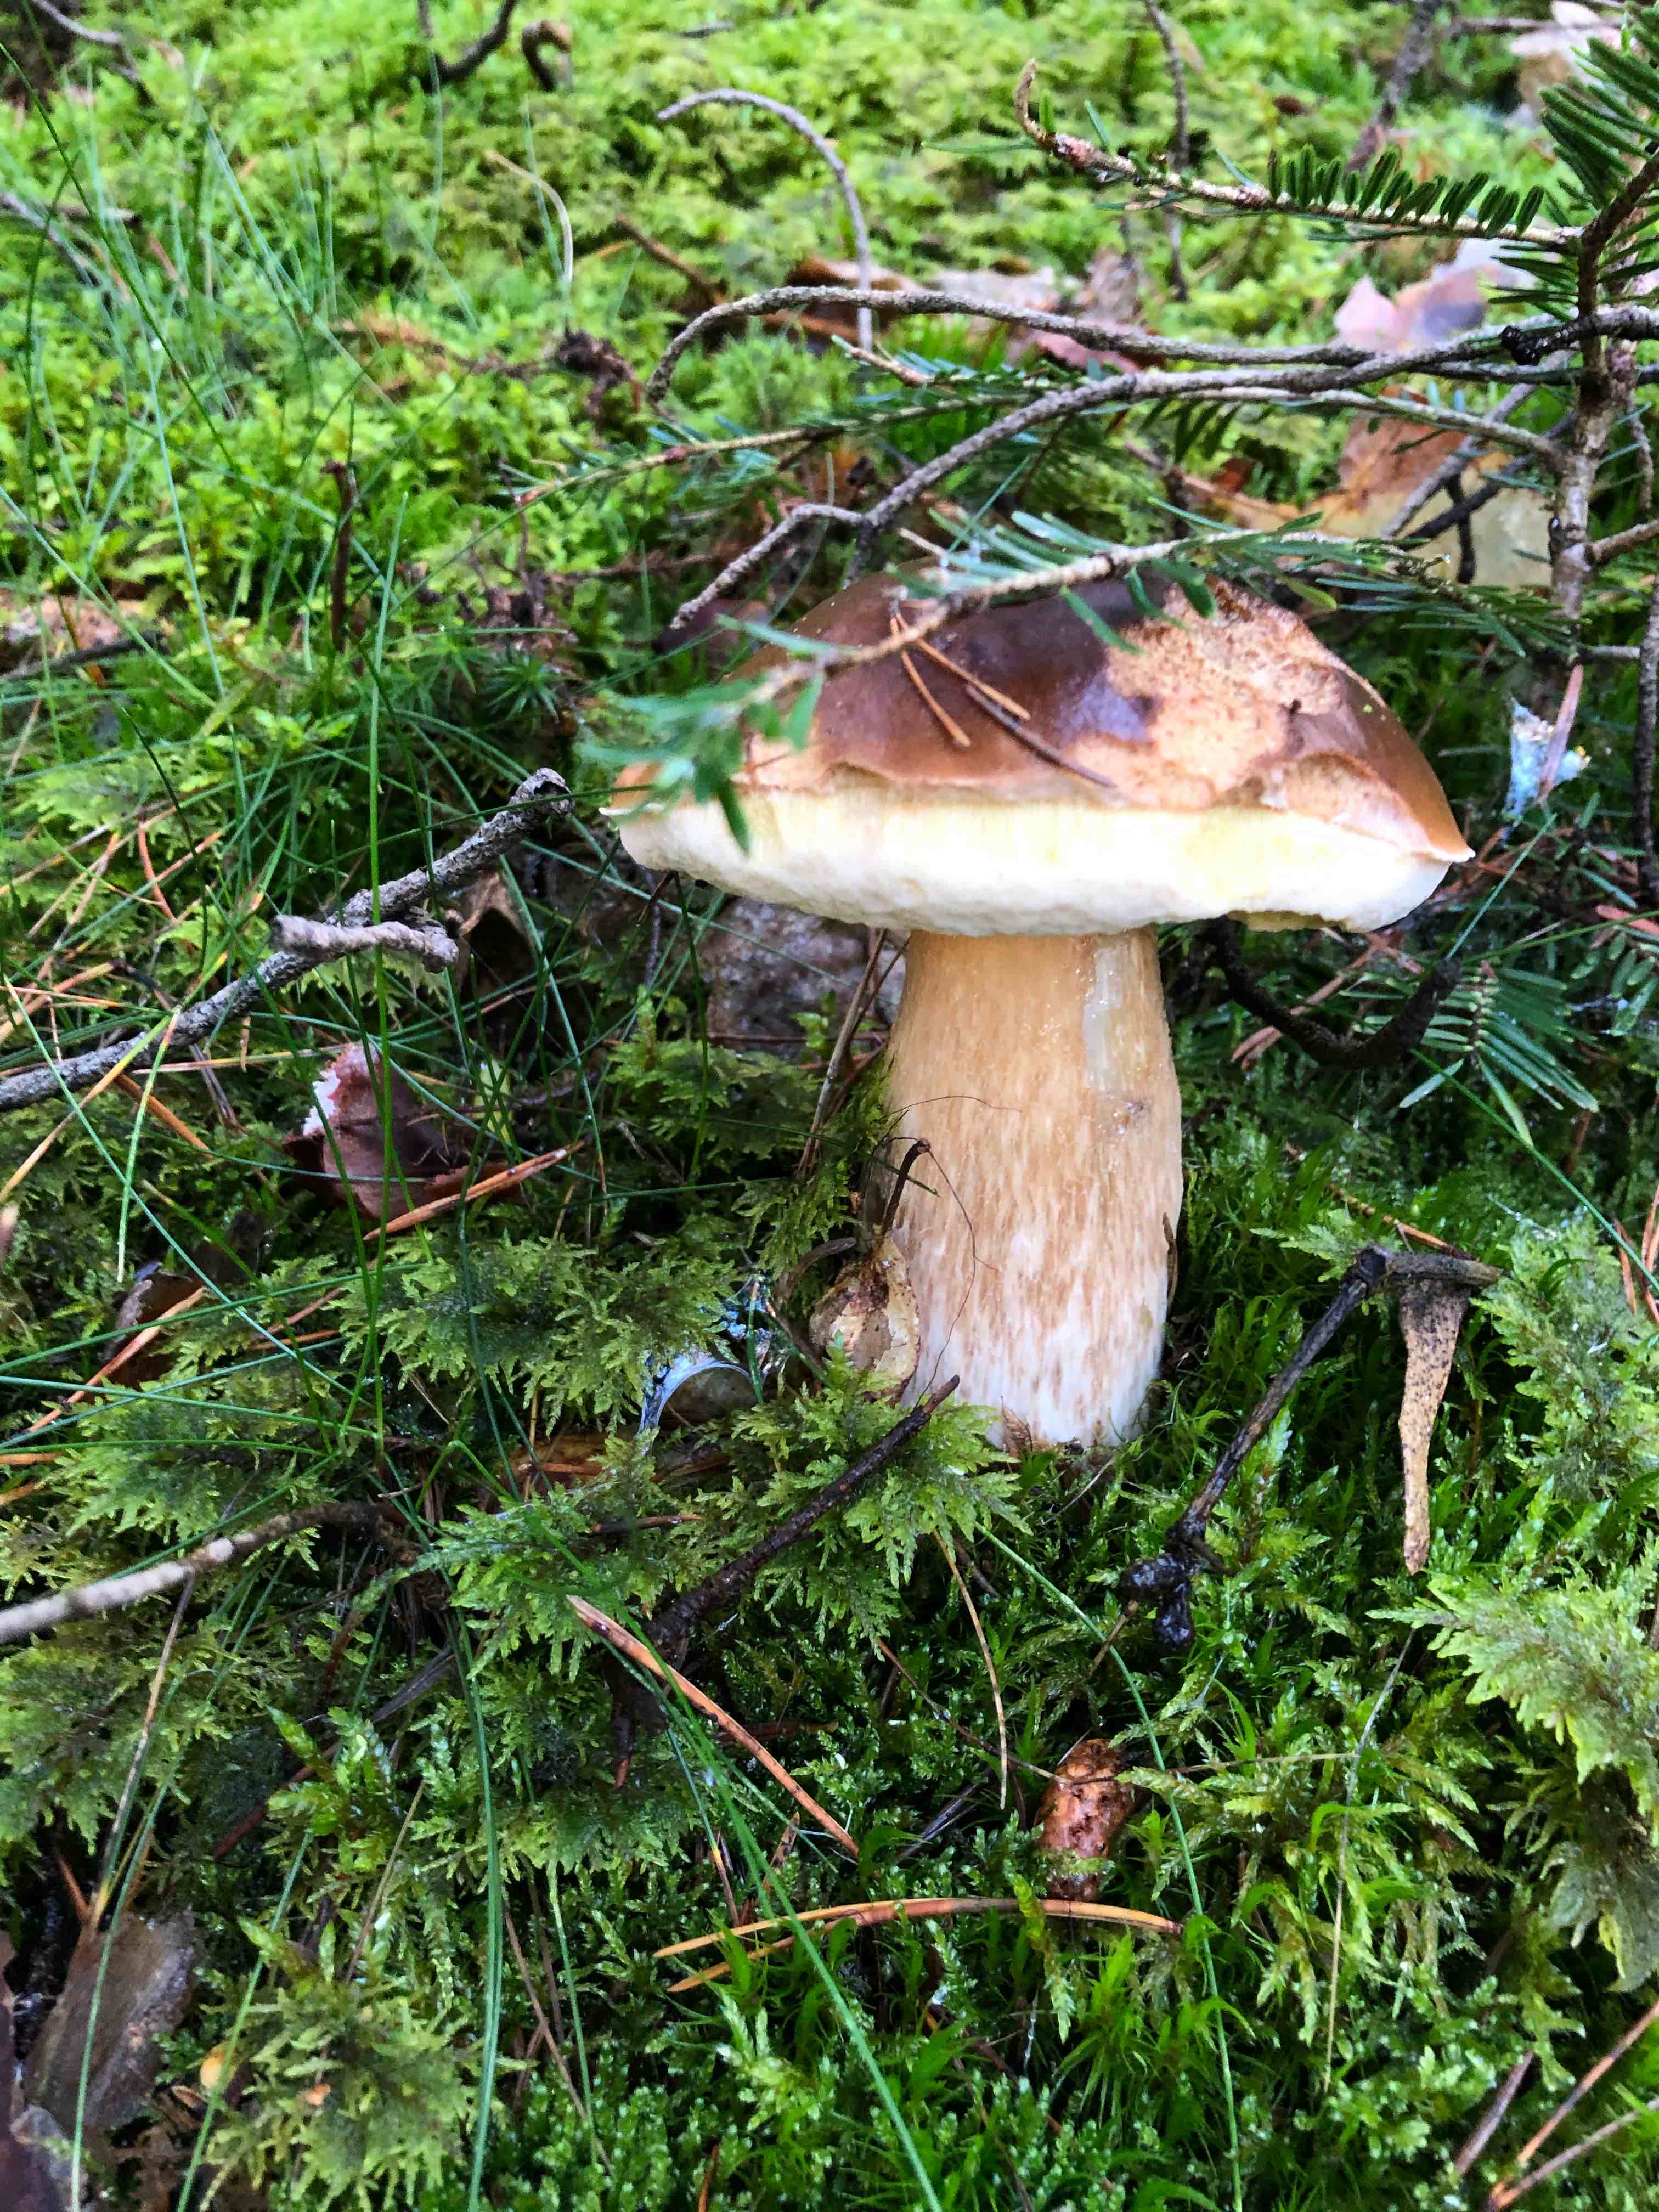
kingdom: Fungi
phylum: Basidiomycota
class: Agaricomycetes
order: Boletales
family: Boletaceae
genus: Boletus
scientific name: Boletus edulis
